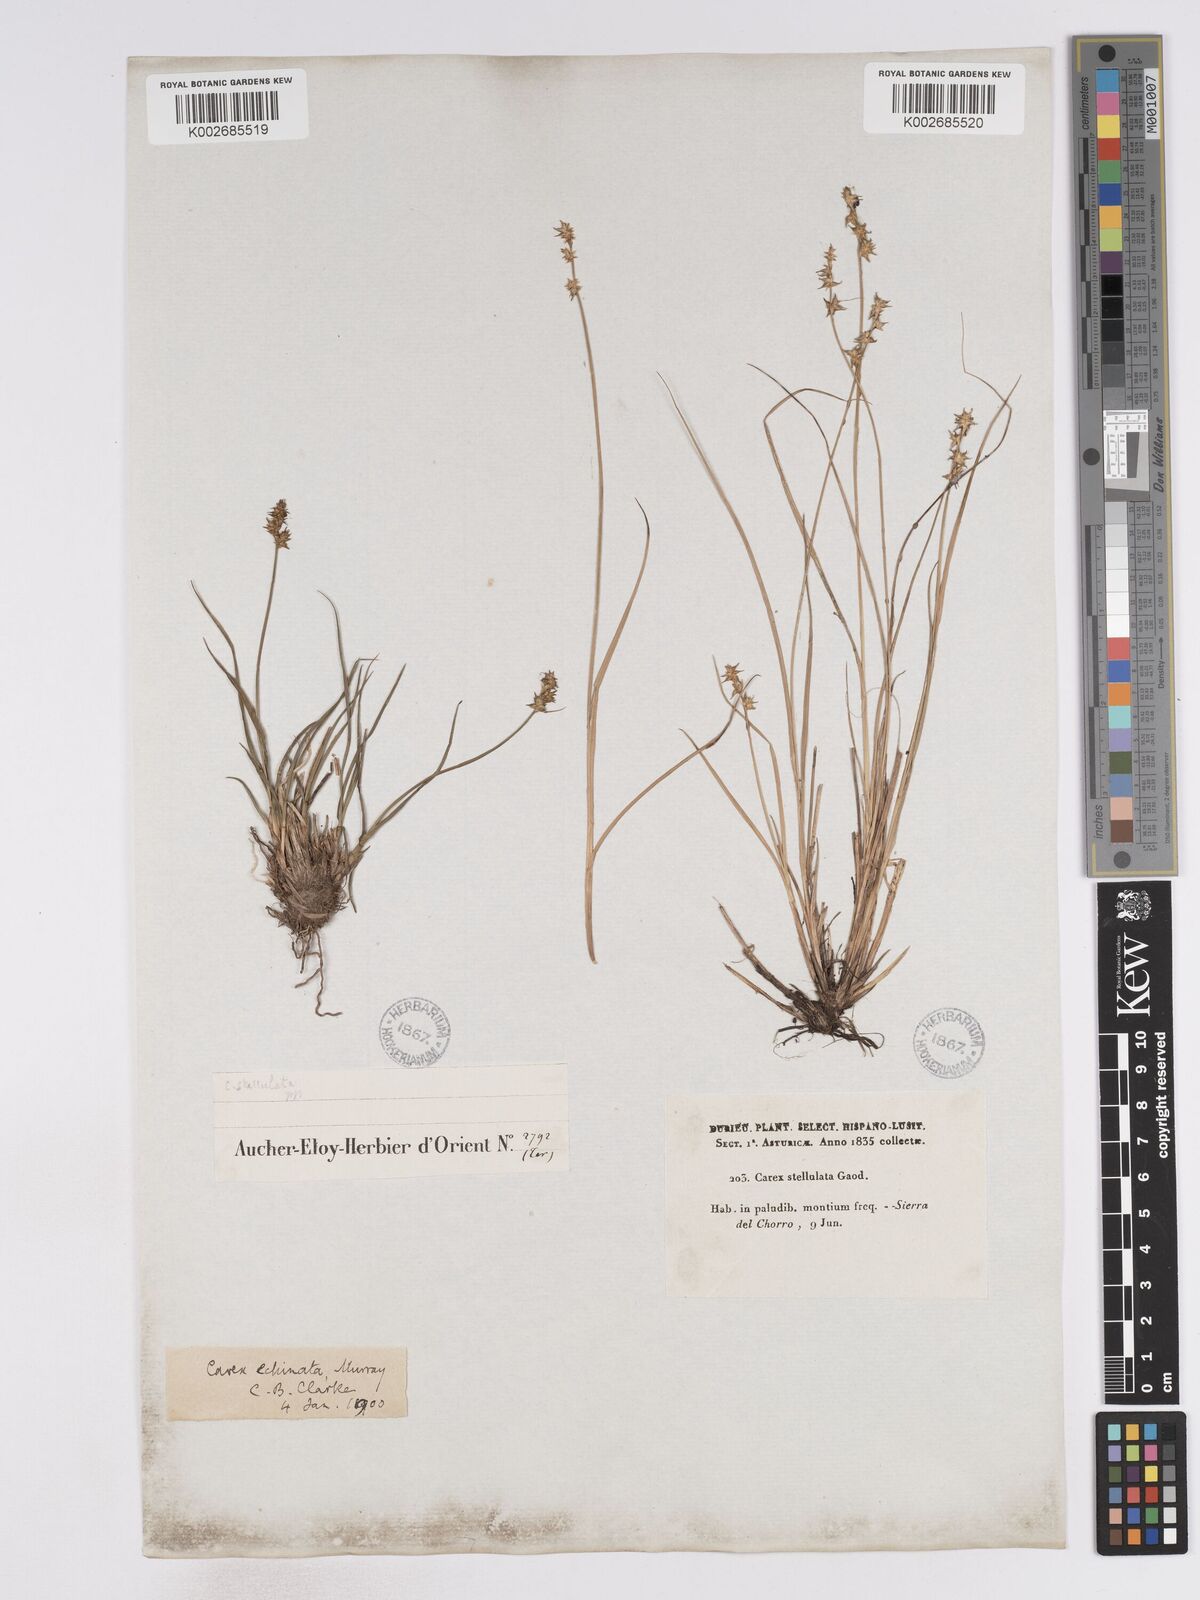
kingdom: Plantae
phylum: Tracheophyta
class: Liliopsida
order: Poales
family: Cyperaceae
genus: Carex
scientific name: Carex echinata
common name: Star sedge
